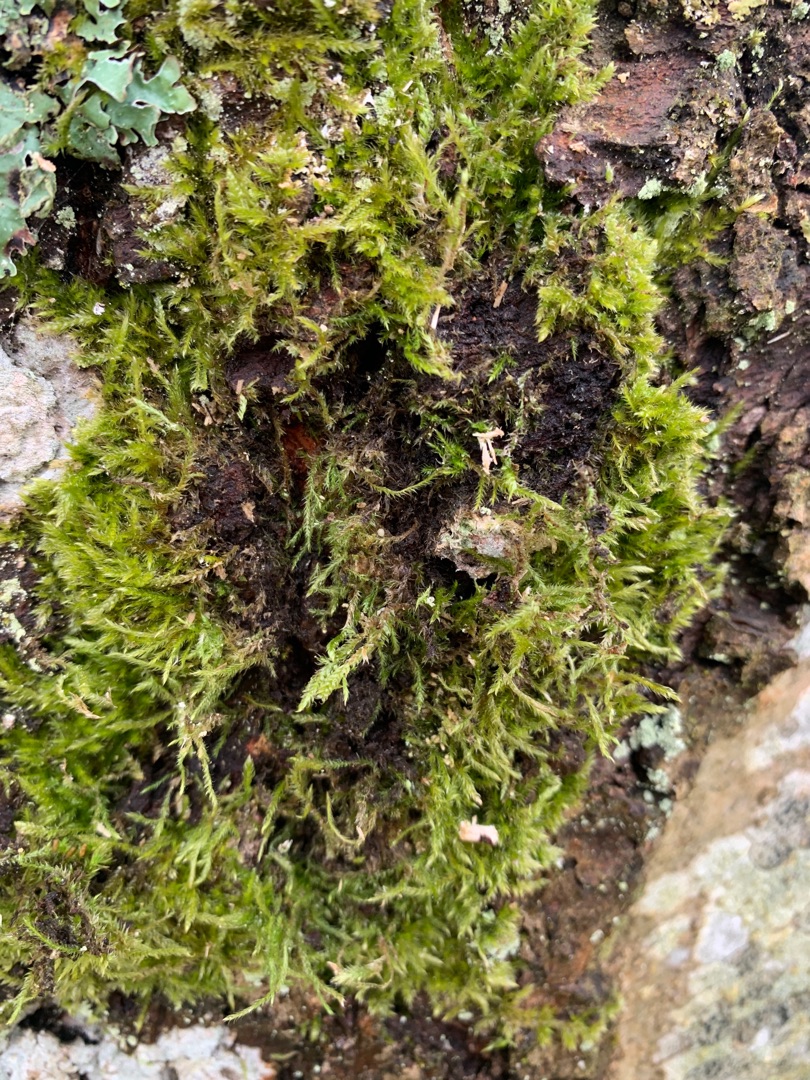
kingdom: Plantae
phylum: Bryophyta
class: Bryopsida
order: Hypnales
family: Hypnaceae
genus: Hypnum
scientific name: Hypnum
